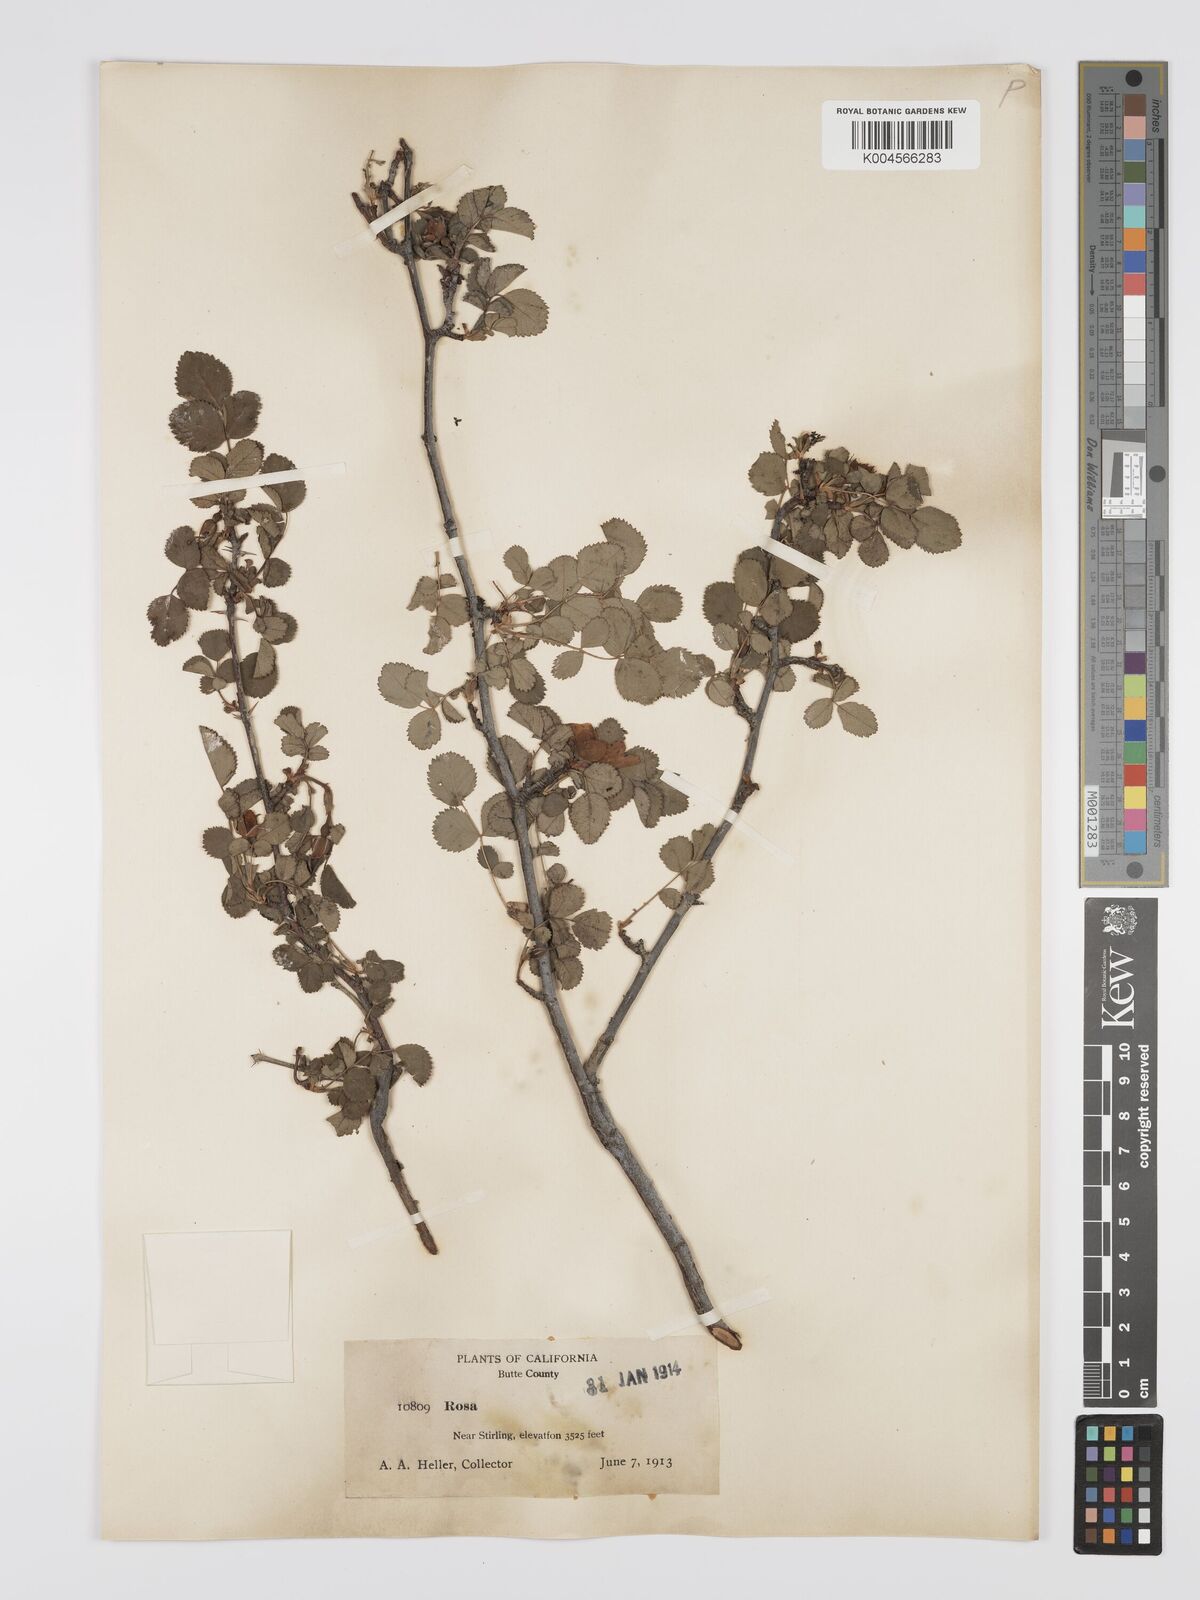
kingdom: Plantae
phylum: Tracheophyta
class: Magnoliopsida
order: Rosales
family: Rosaceae
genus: Rosa
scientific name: Rosa bridgesii
